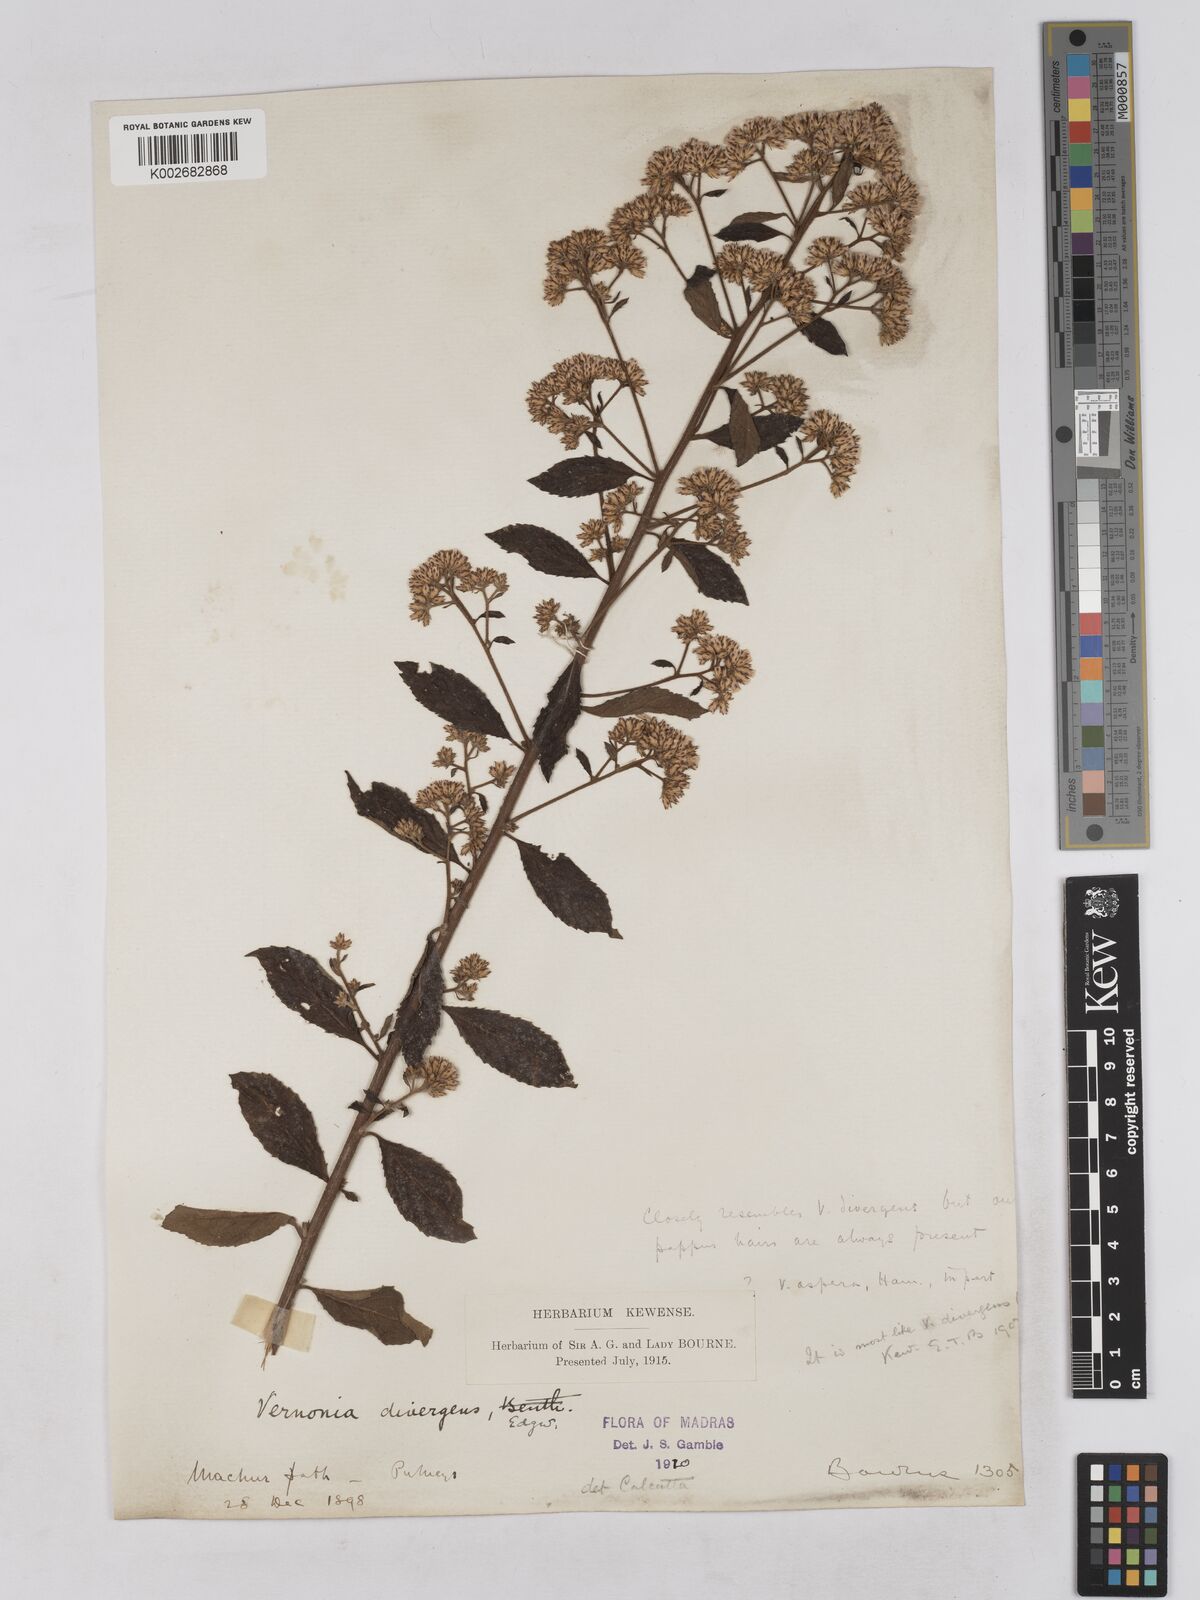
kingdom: Plantae
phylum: Tracheophyta
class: Magnoliopsida
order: Asterales
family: Asteraceae
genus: Acilepis
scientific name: Acilepis divergens
